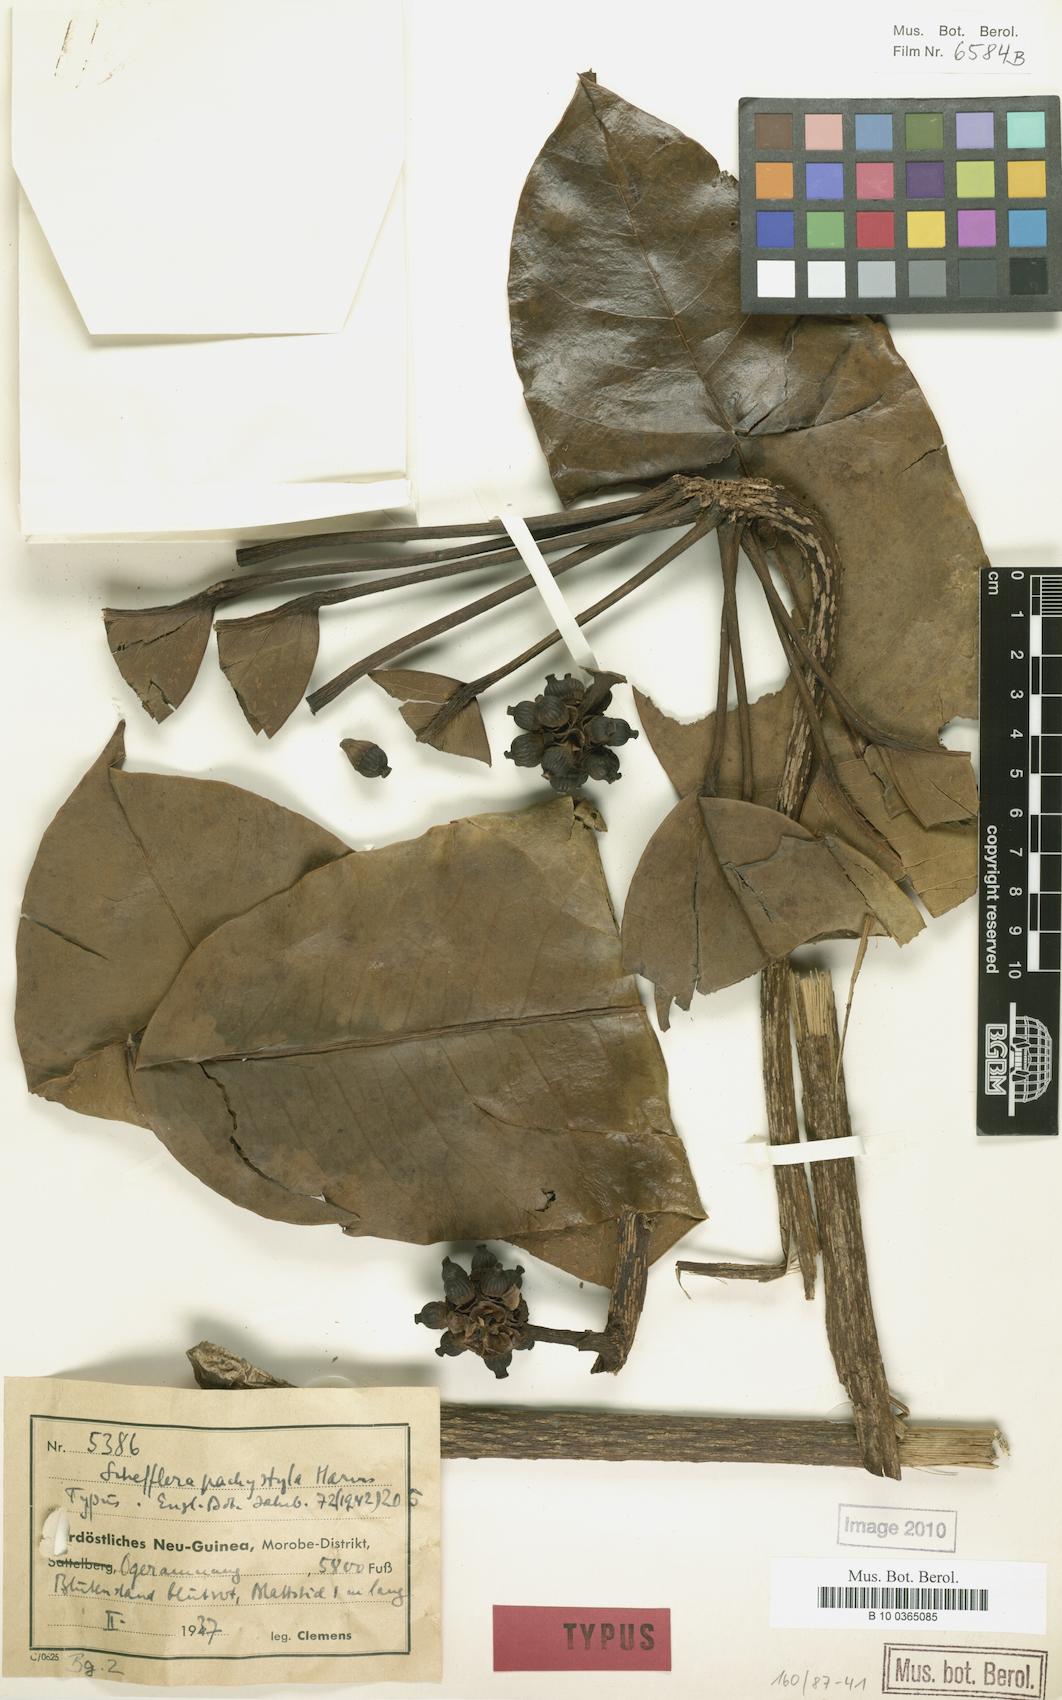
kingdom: Plantae
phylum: Tracheophyta
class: Magnoliopsida
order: Apiales
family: Araliaceae
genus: Heptapleurum
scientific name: Heptapleurum pachystylum
